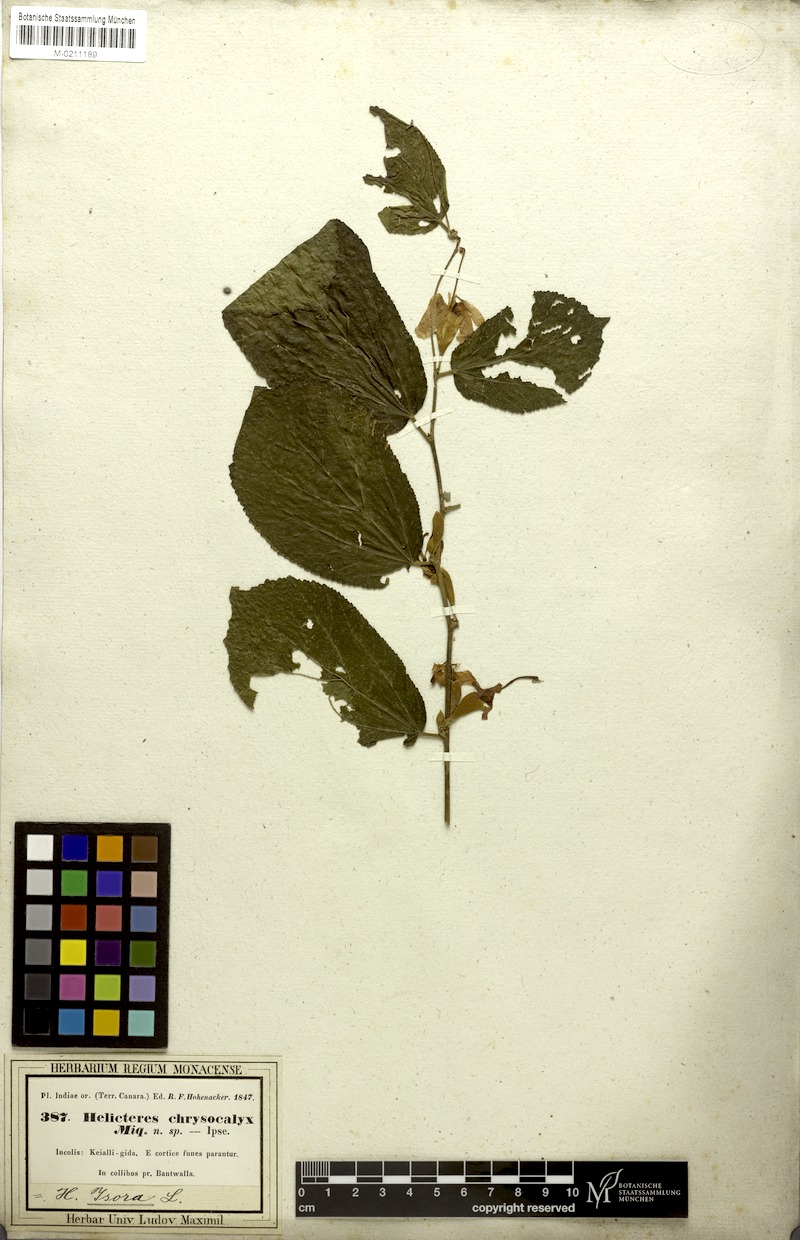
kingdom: Plantae
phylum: Tracheophyta
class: Magnoliopsida
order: Malvales
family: Malvaceae
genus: Helicteres
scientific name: Helicteres isora
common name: East indian screwtree
